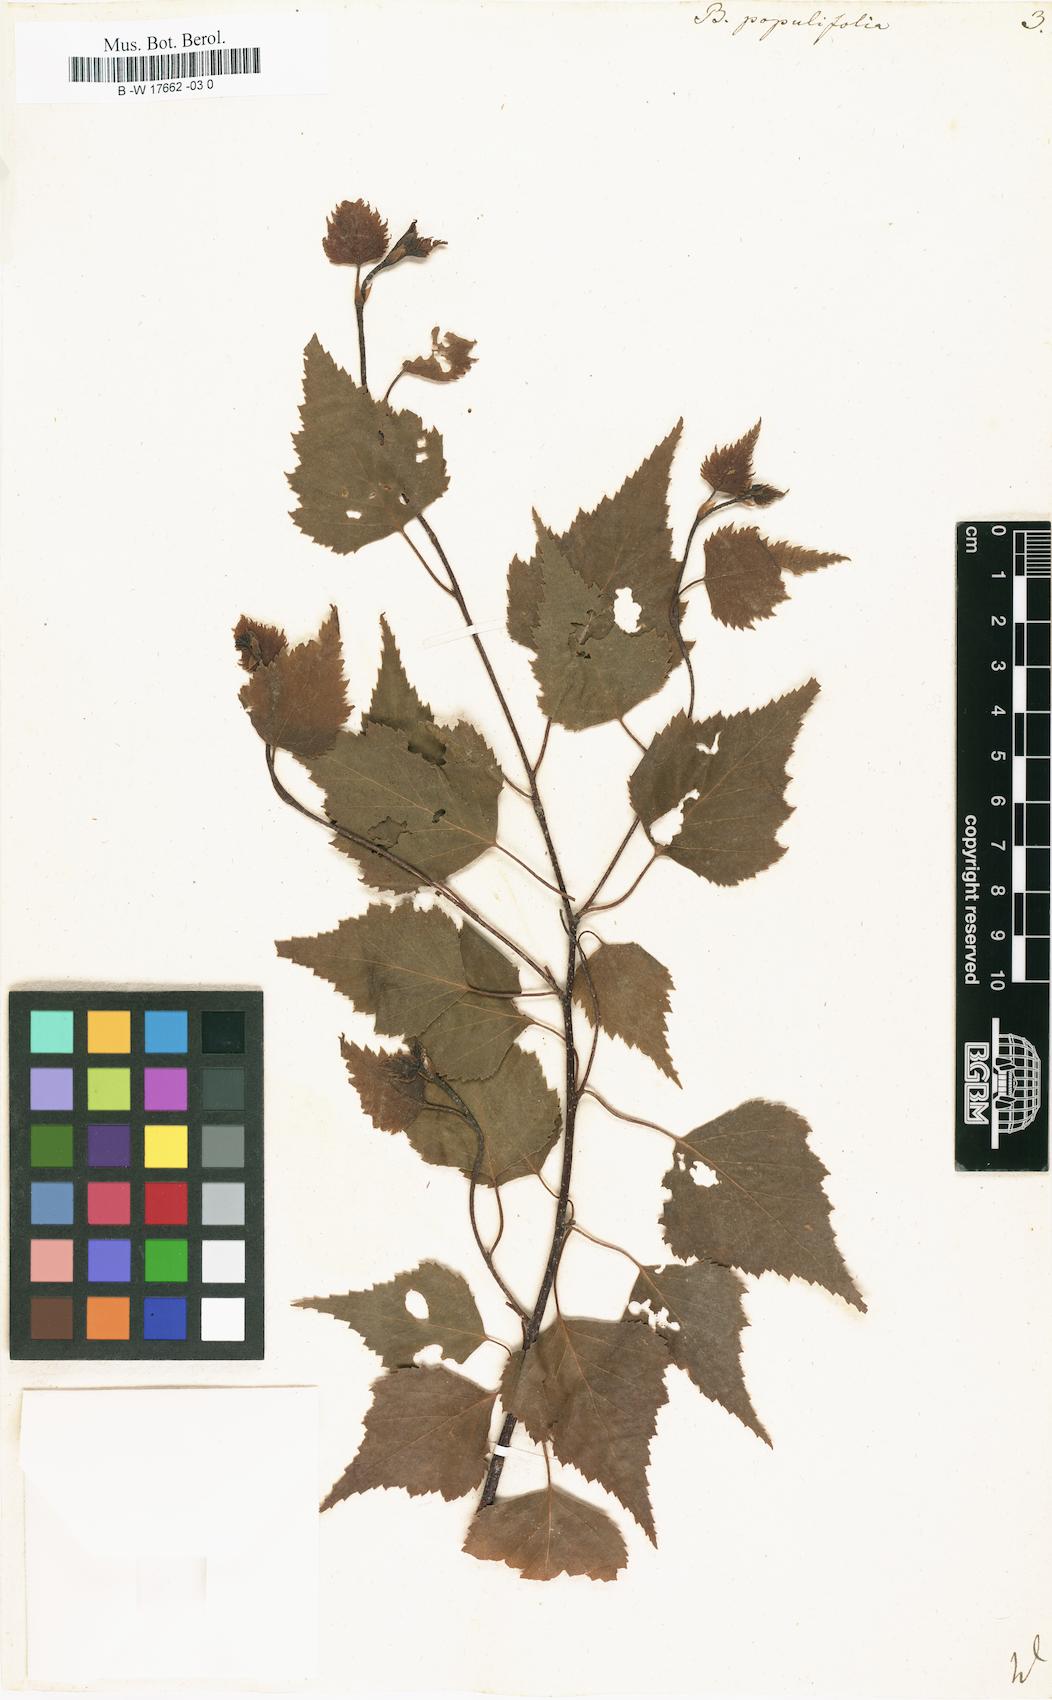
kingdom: Plantae
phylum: Tracheophyta
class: Magnoliopsida
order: Fagales
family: Betulaceae
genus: Betula
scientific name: Betula pubescens
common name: Downy birch
